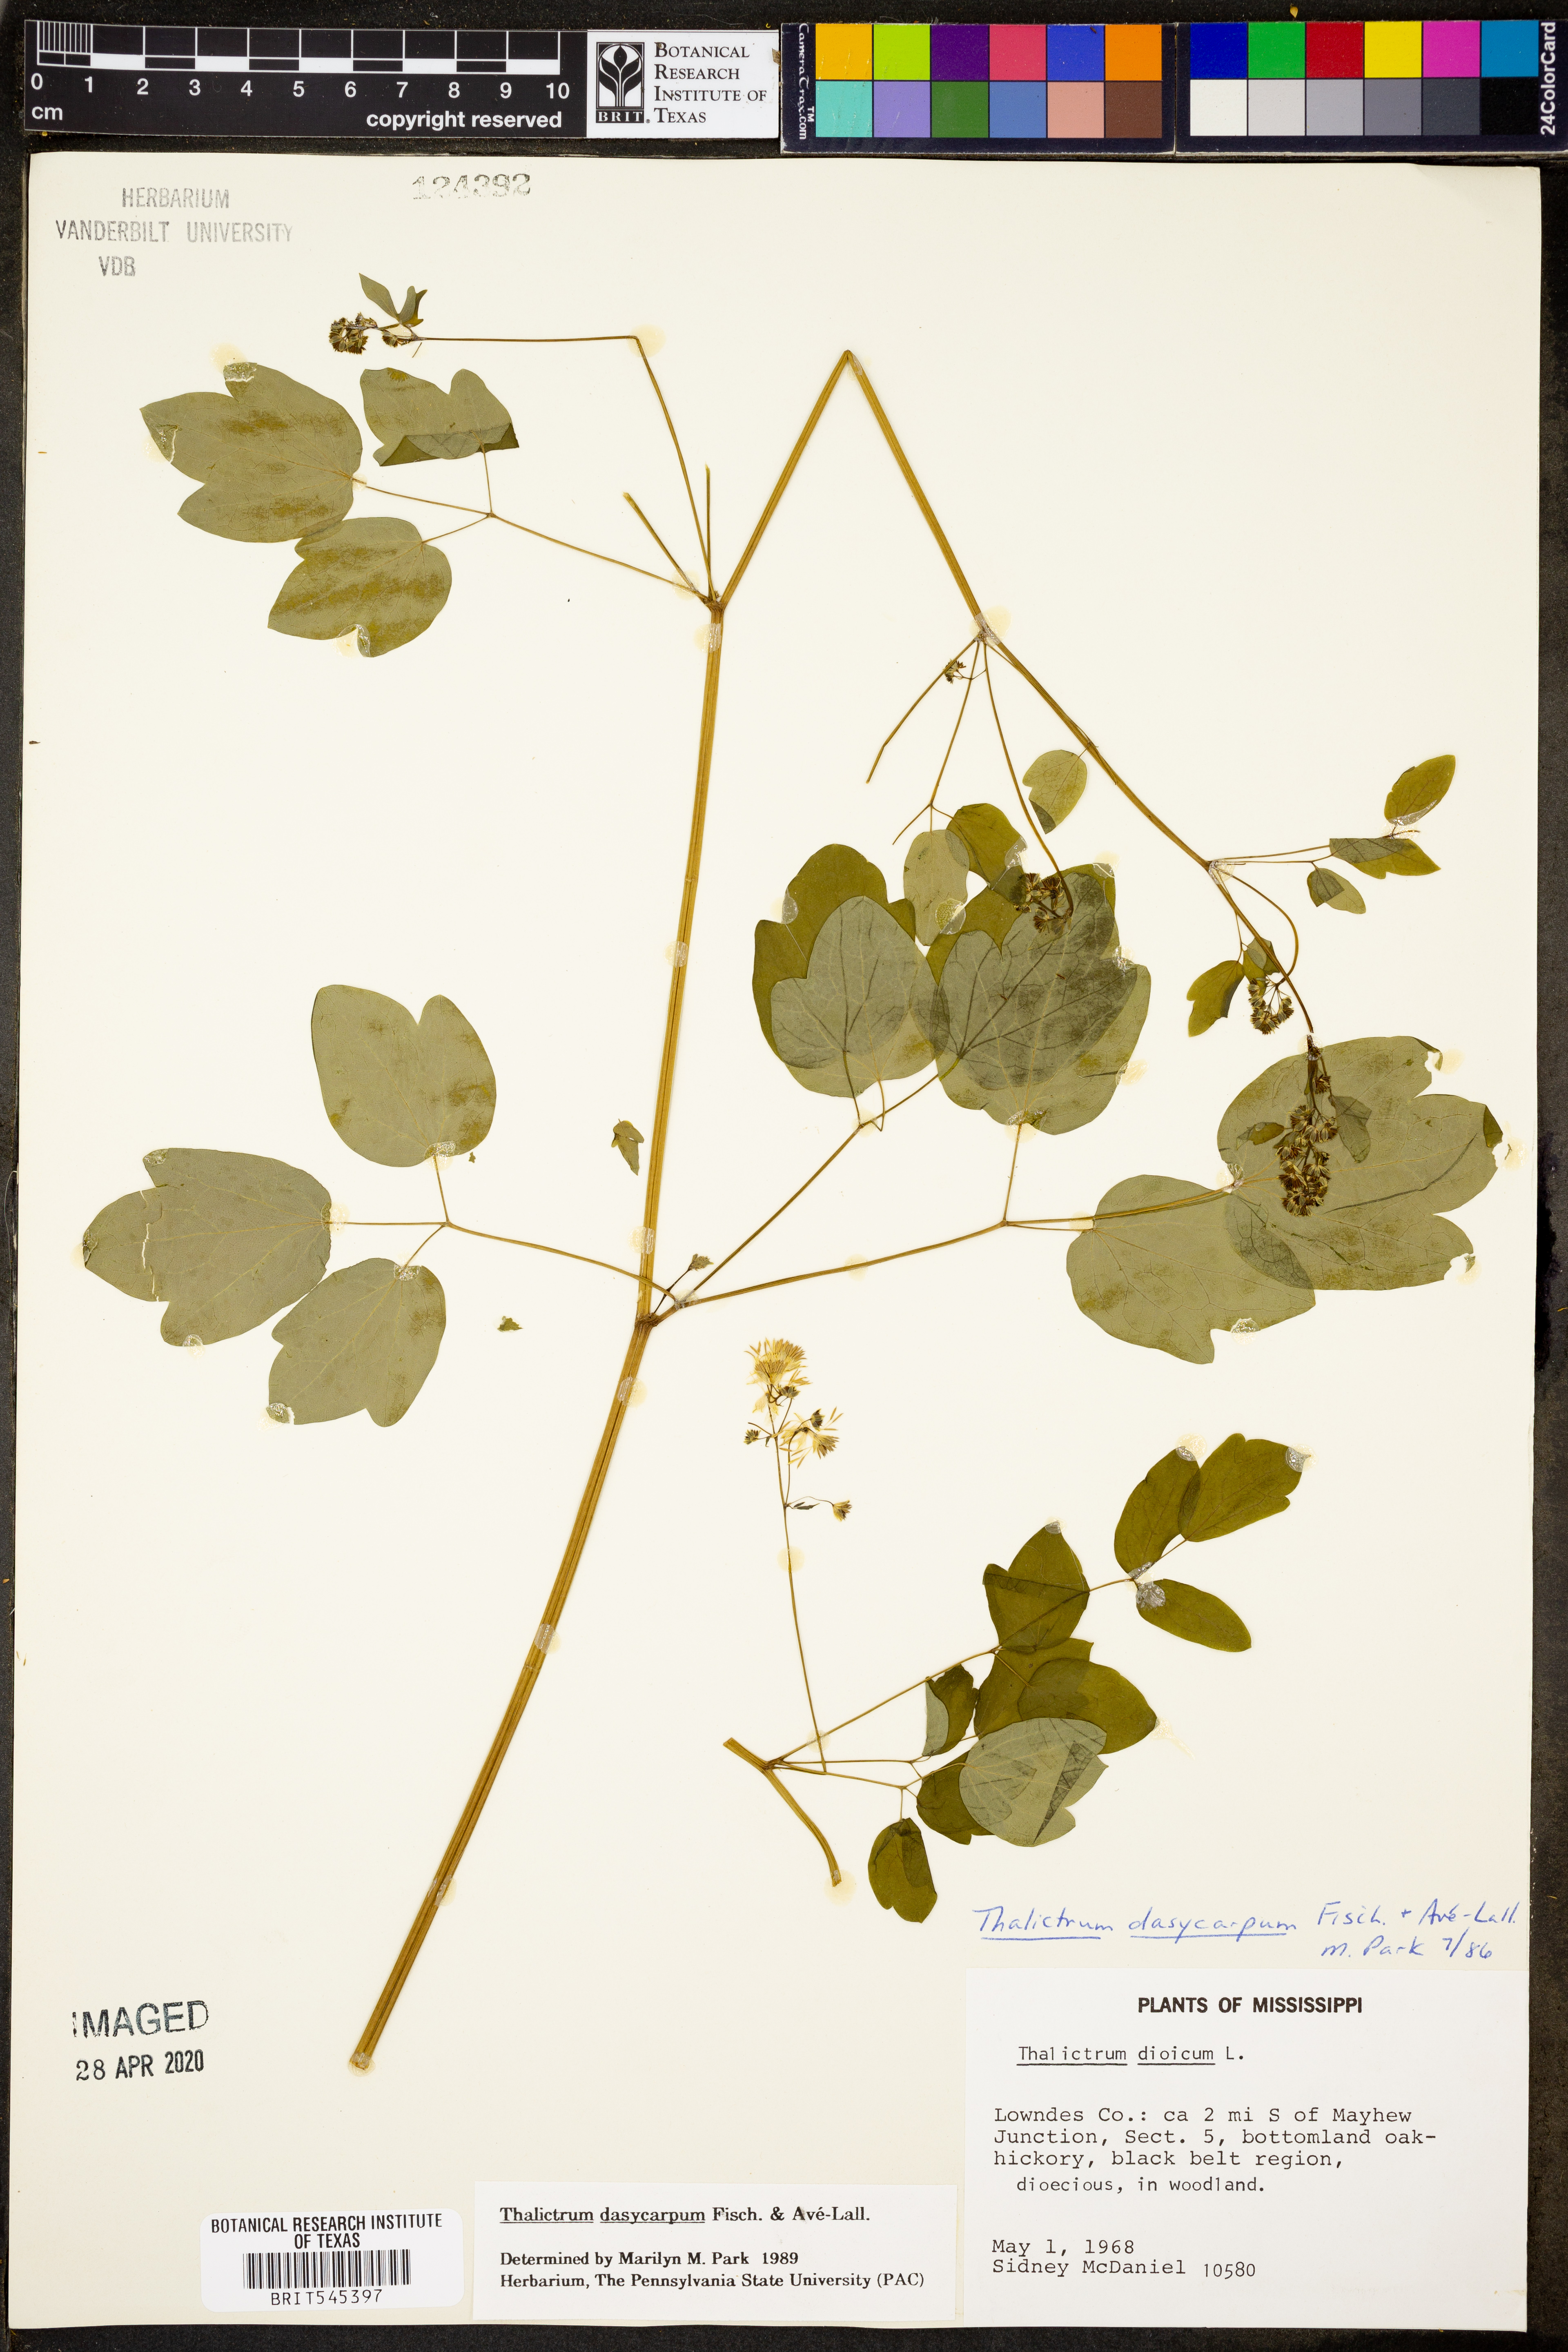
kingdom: Plantae
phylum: Tracheophyta
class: Magnoliopsida
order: Ranunculales
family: Ranunculaceae
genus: Thalictrum
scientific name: Thalictrum dasycarpum
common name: Purple meadow-rue
